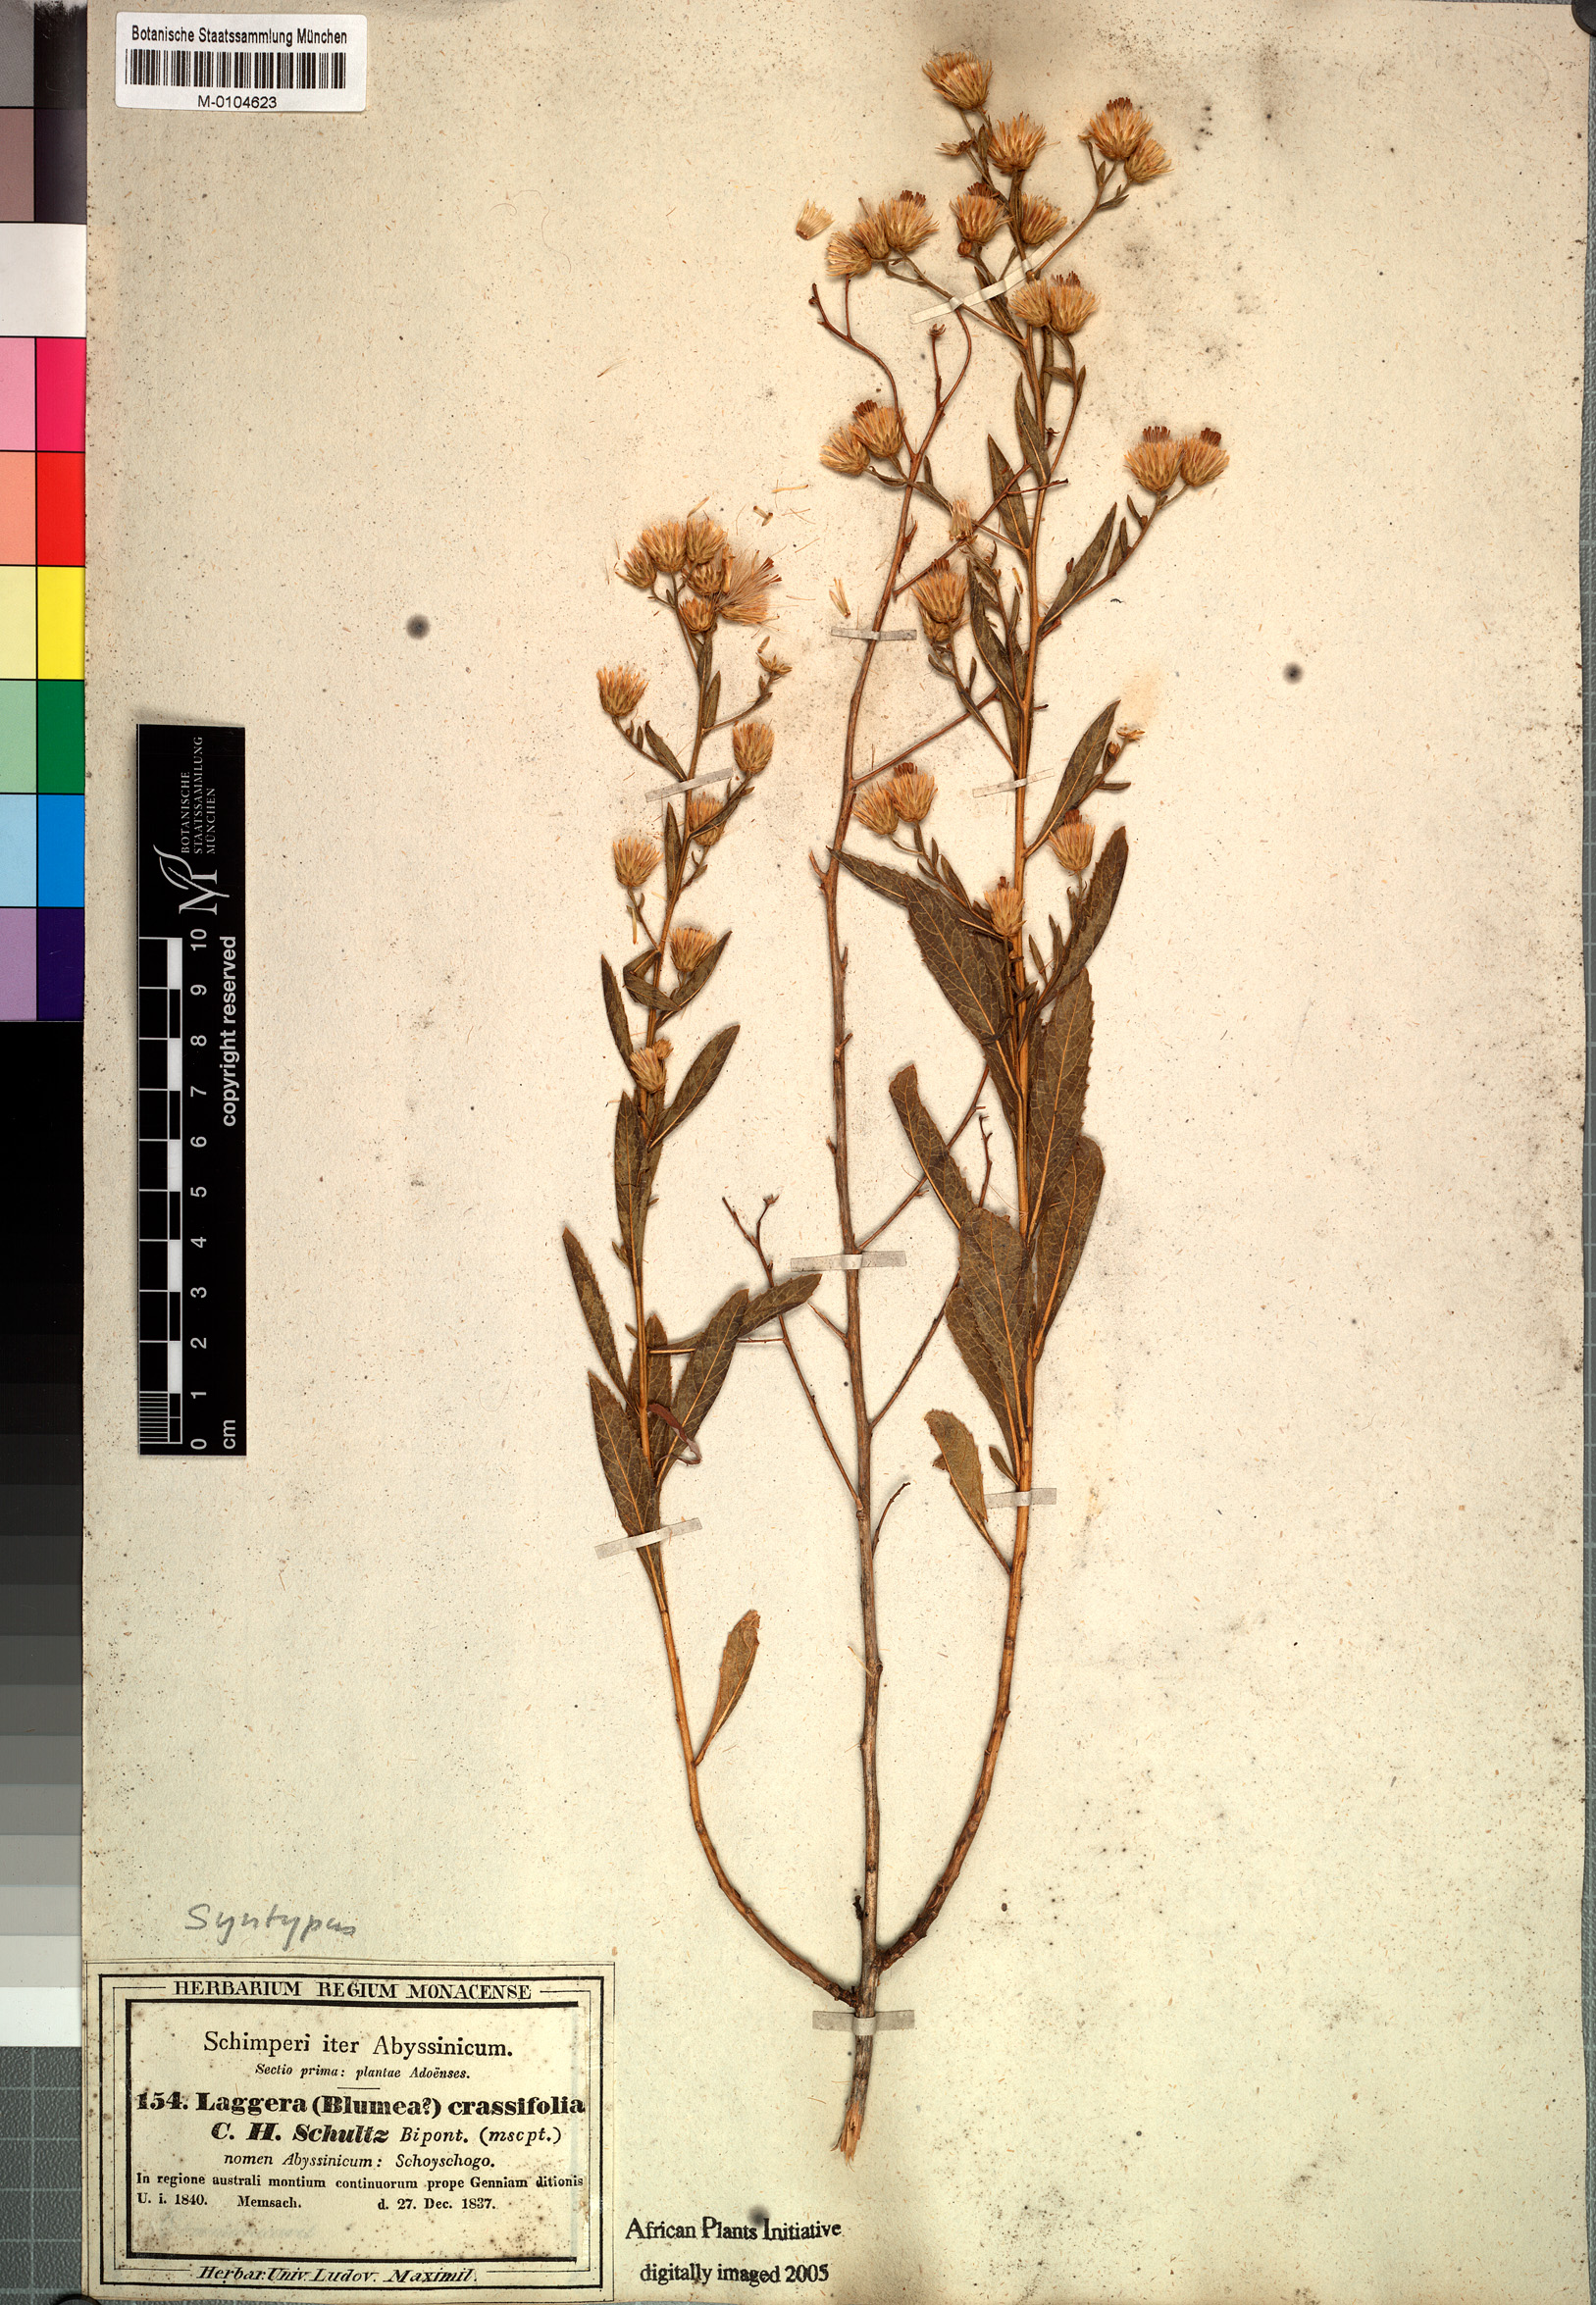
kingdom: Plantae
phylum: Tracheophyta
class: Magnoliopsida
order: Asterales
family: Asteraceae
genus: Laggera
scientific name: Laggera crassifolia
